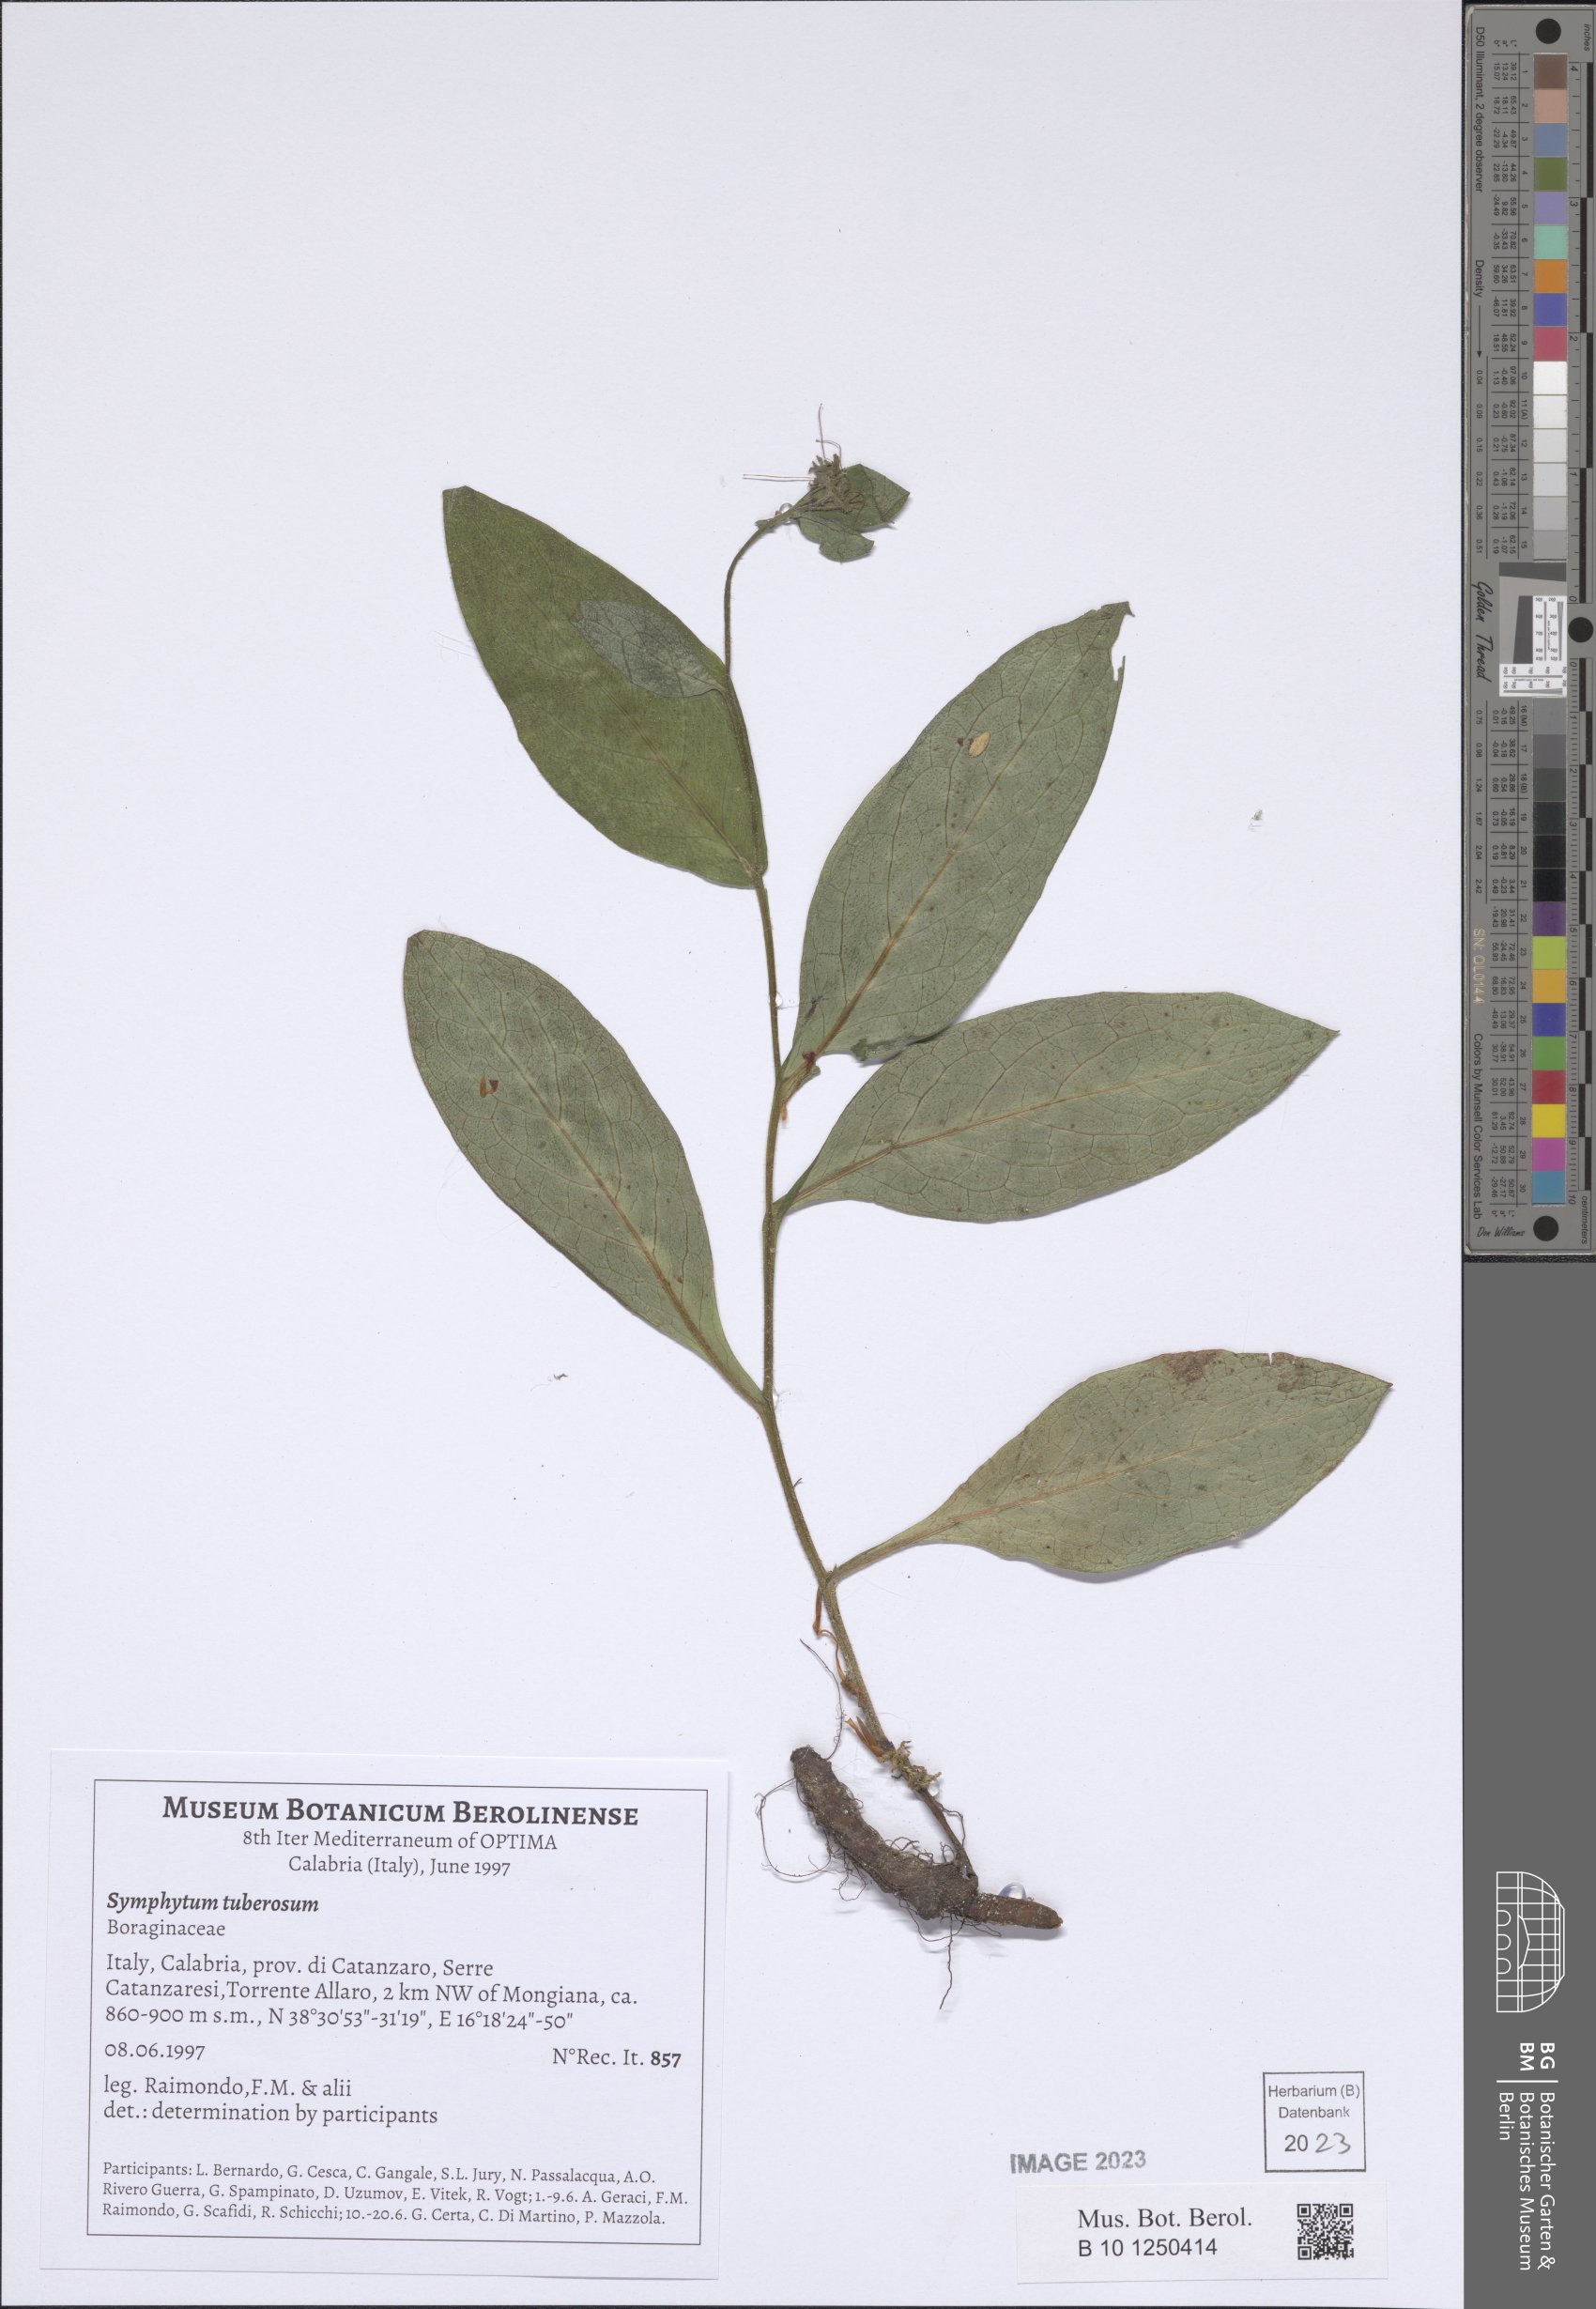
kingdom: Plantae
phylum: Tracheophyta
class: Magnoliopsida
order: Boraginales
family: Boraginaceae
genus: Symphytum
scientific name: Symphytum tuberosum
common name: Tuberous comfrey
